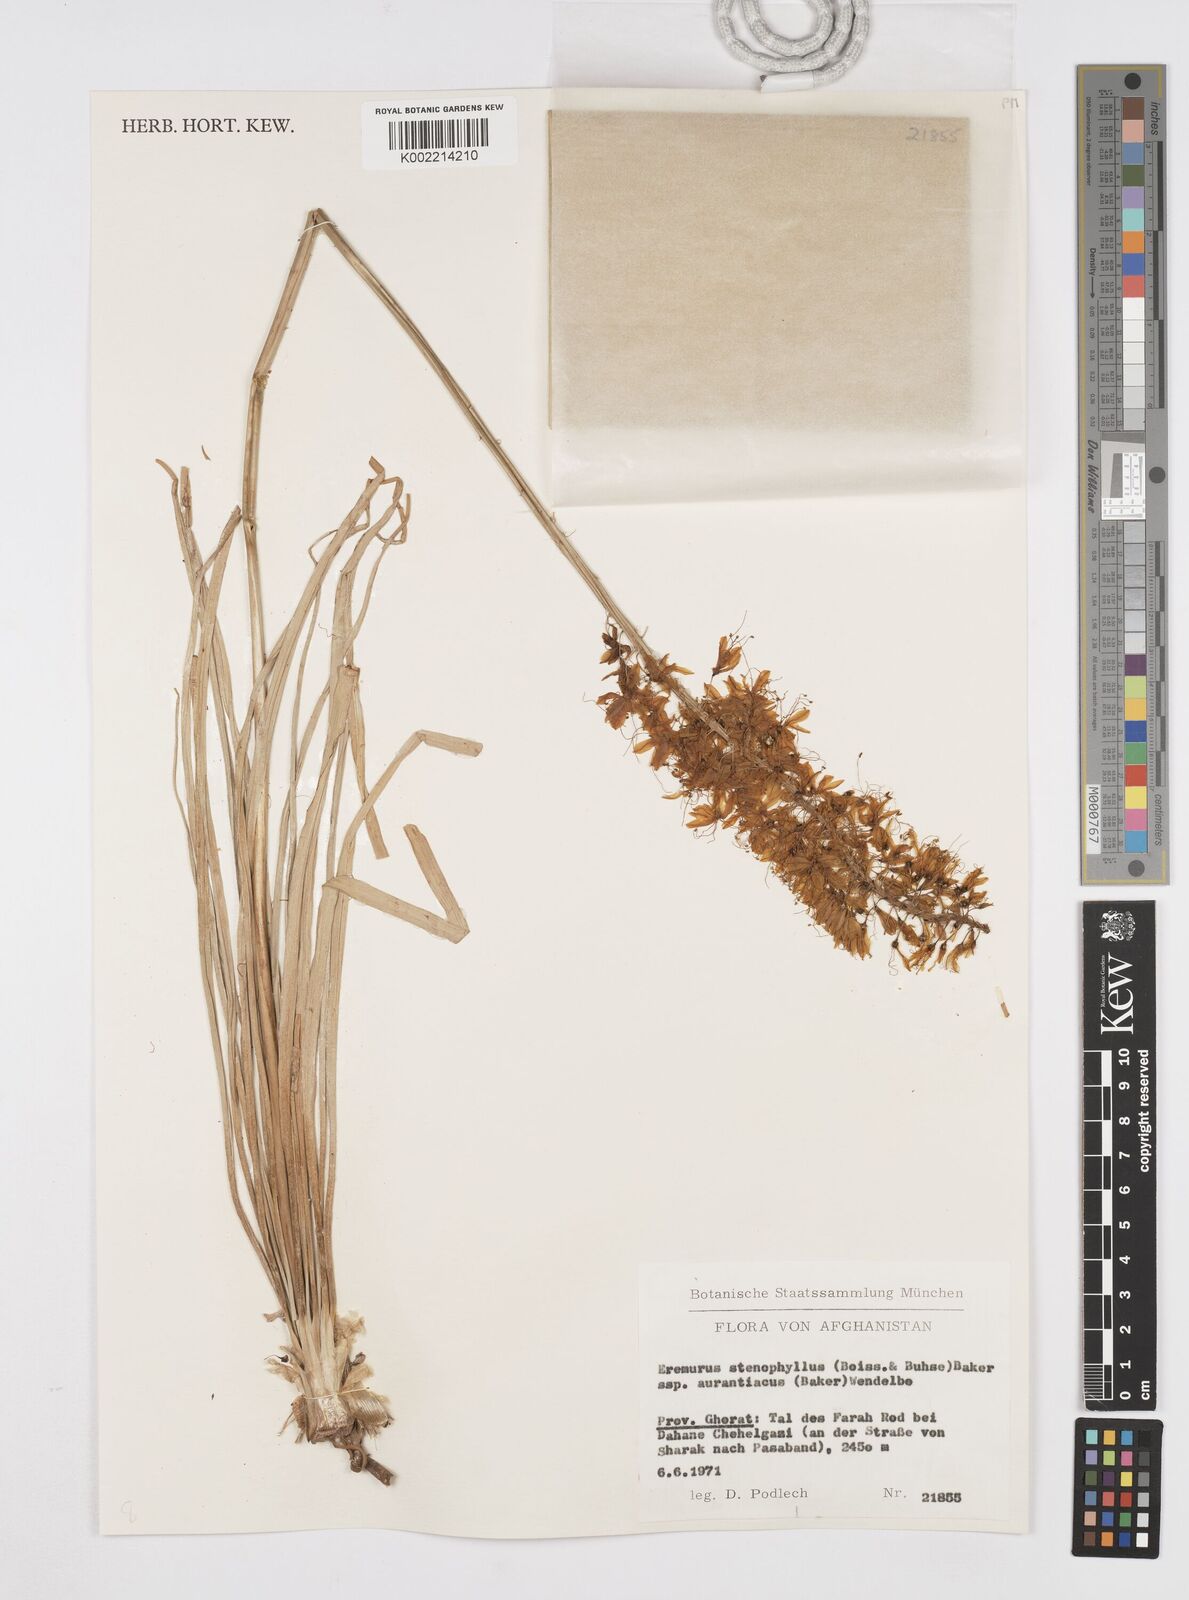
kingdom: Plantae
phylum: Tracheophyta
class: Liliopsida
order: Asparagales
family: Asphodelaceae
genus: Eremurus
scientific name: Eremurus stenophyllus
